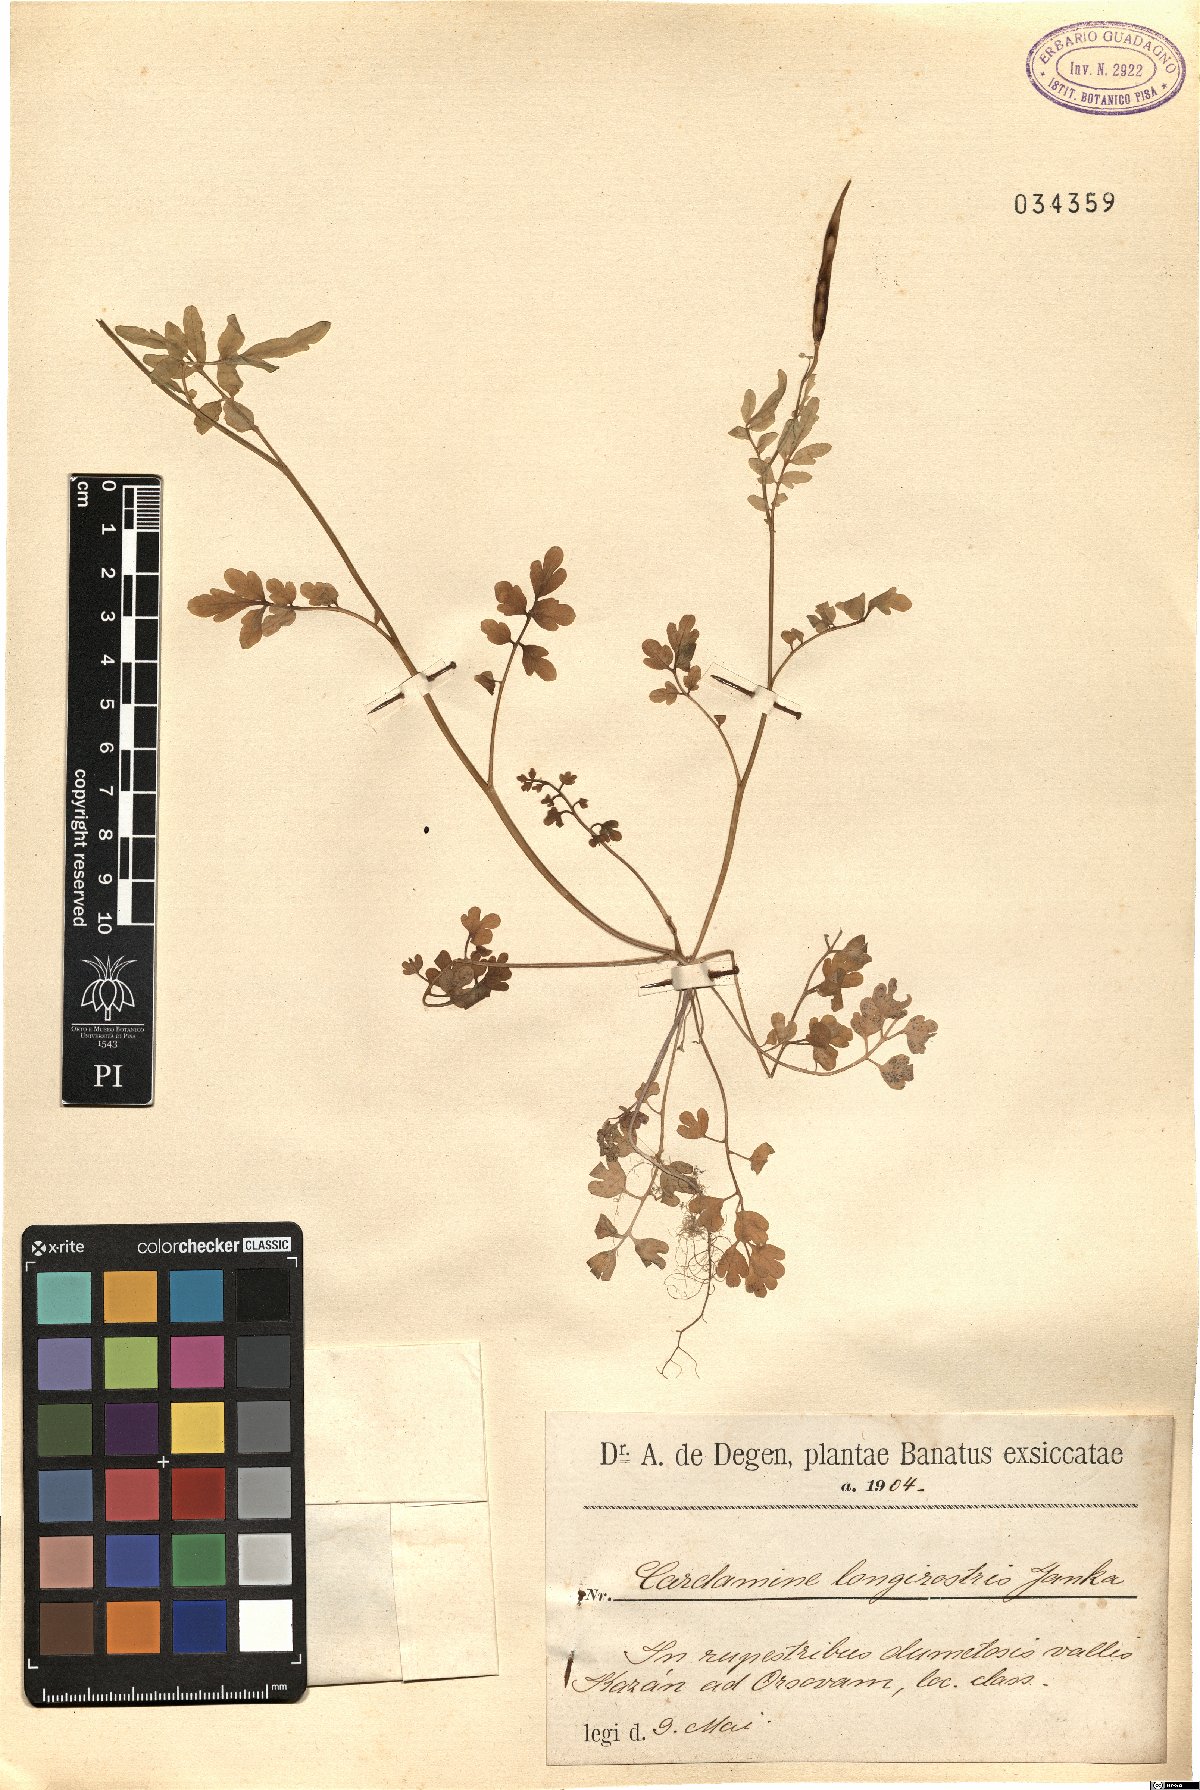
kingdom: Plantae
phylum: Tracheophyta
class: Magnoliopsida
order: Brassicales
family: Brassicaceae
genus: Cardamine
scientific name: Cardamine graeca
